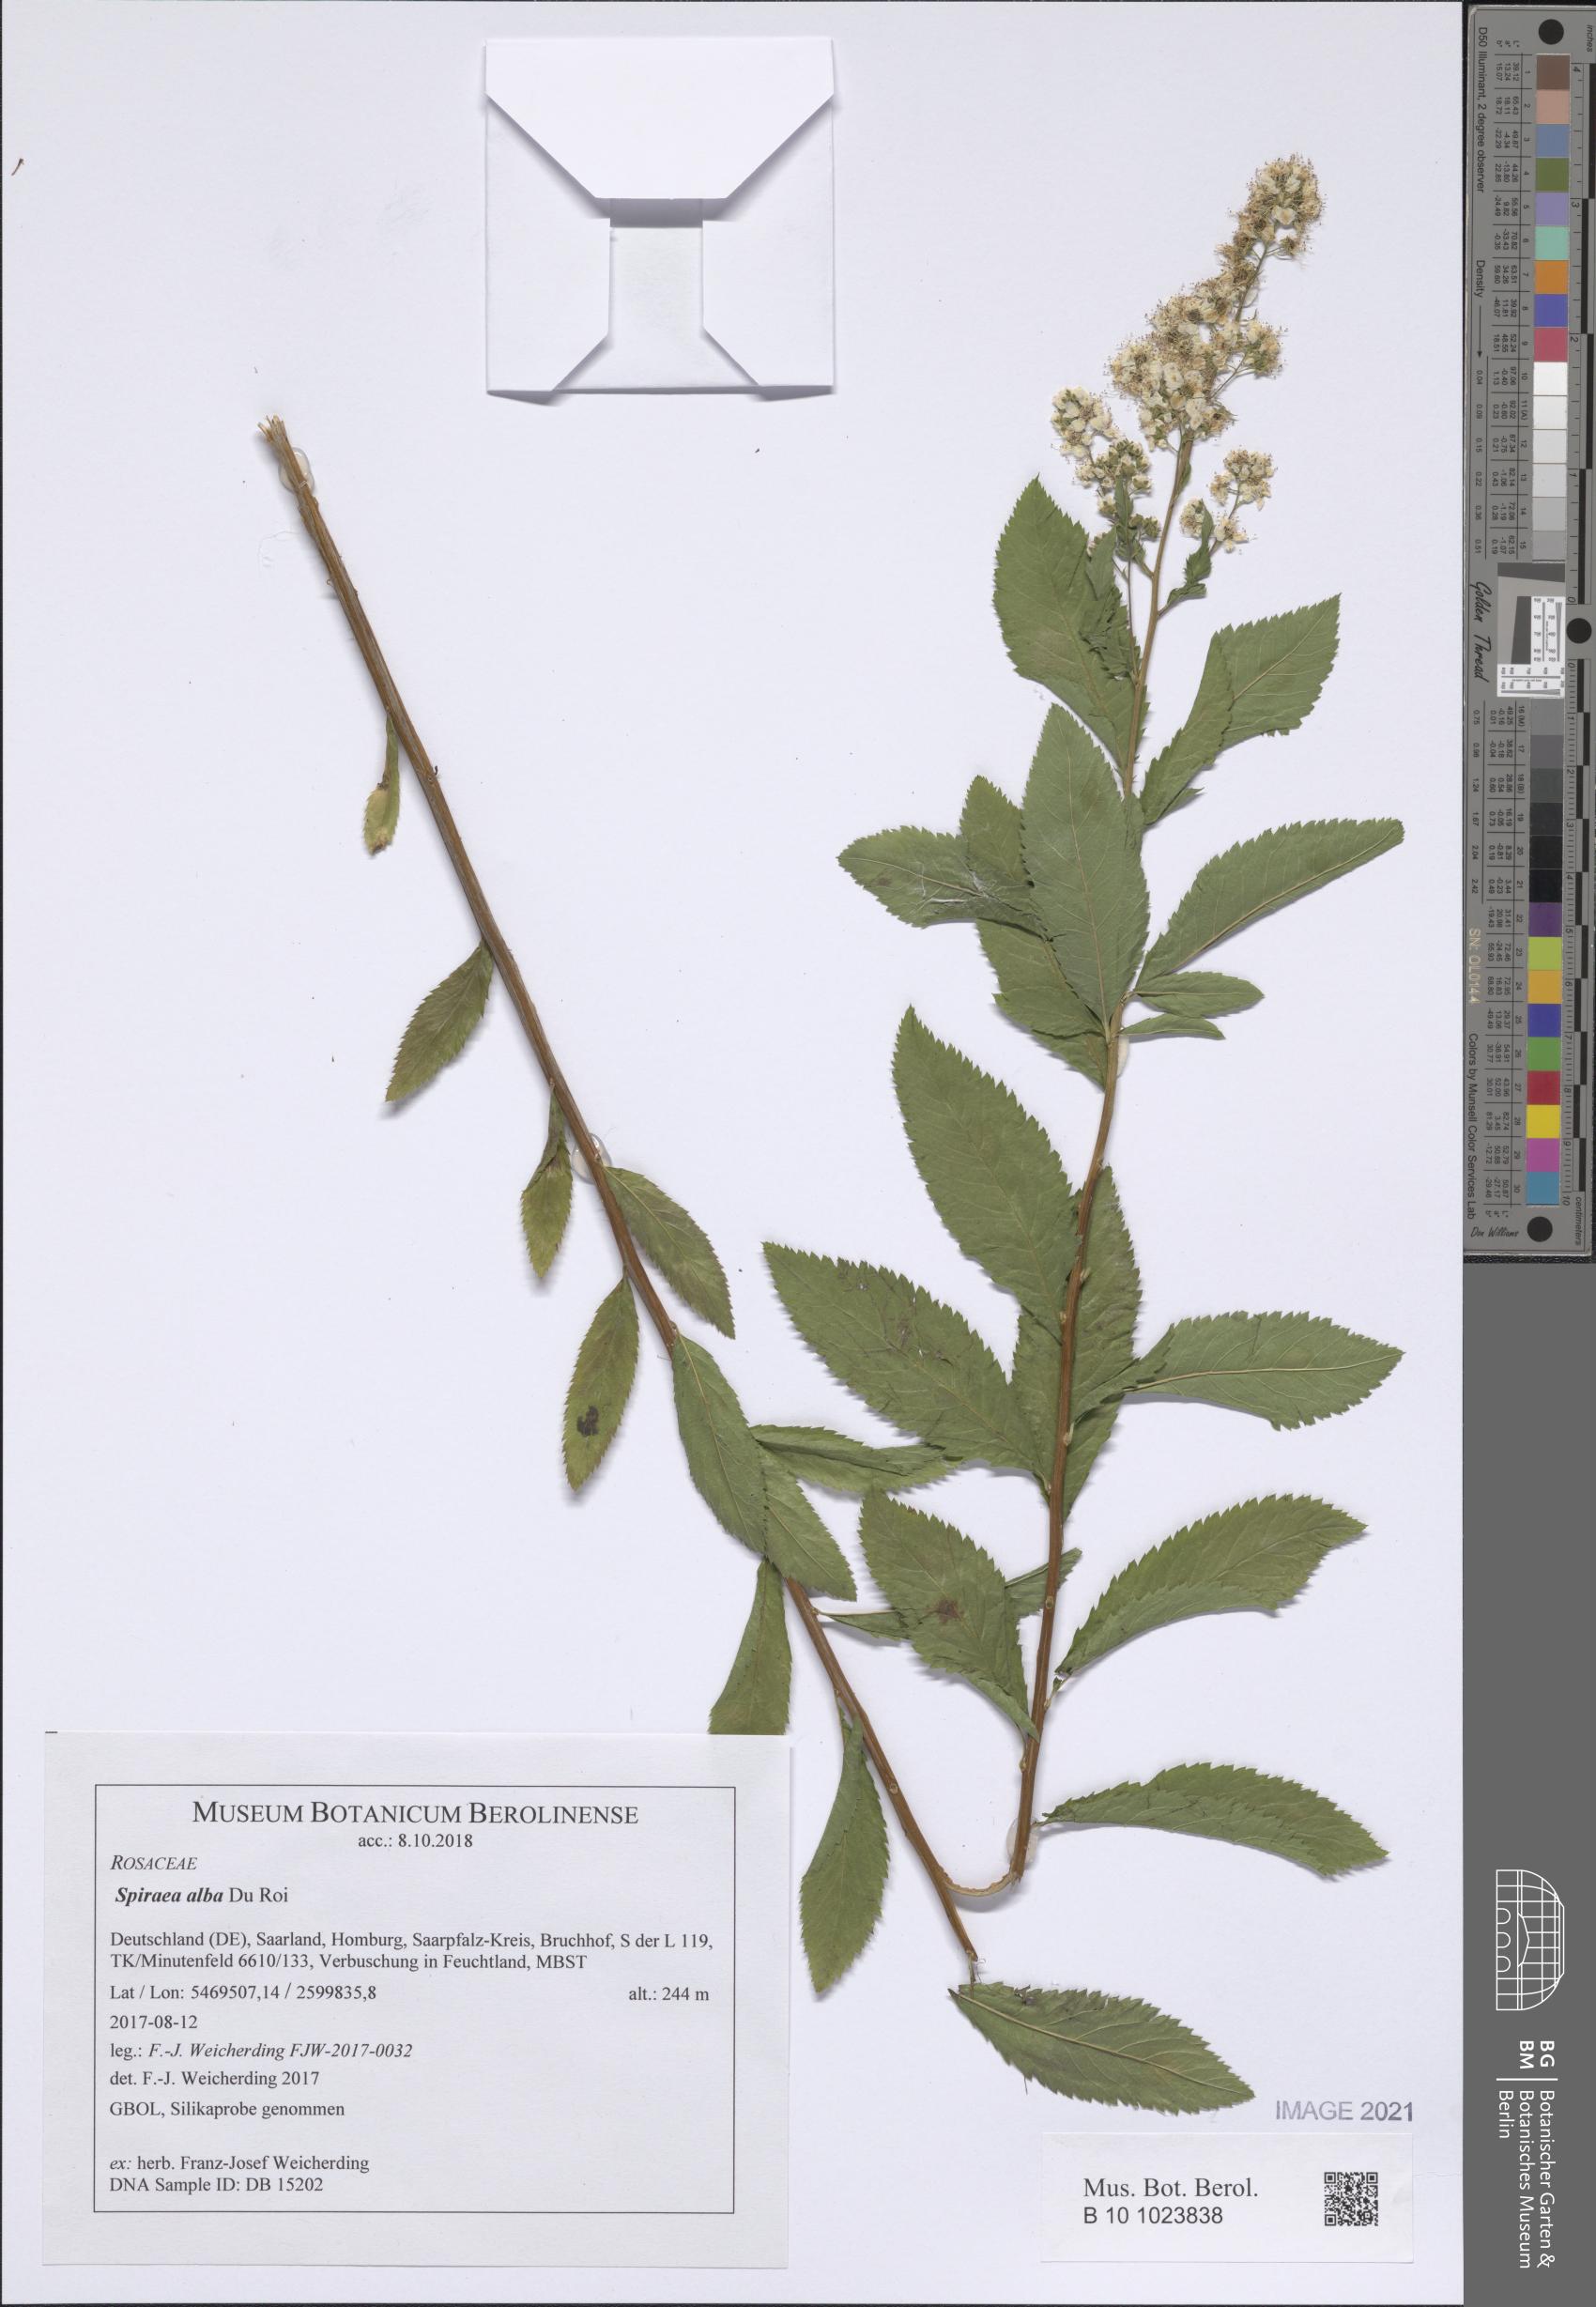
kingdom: Plantae
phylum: Tracheophyta
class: Magnoliopsida
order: Rosales
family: Rosaceae
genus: Spiraea
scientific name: Spiraea alba
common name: Pale bridewort
